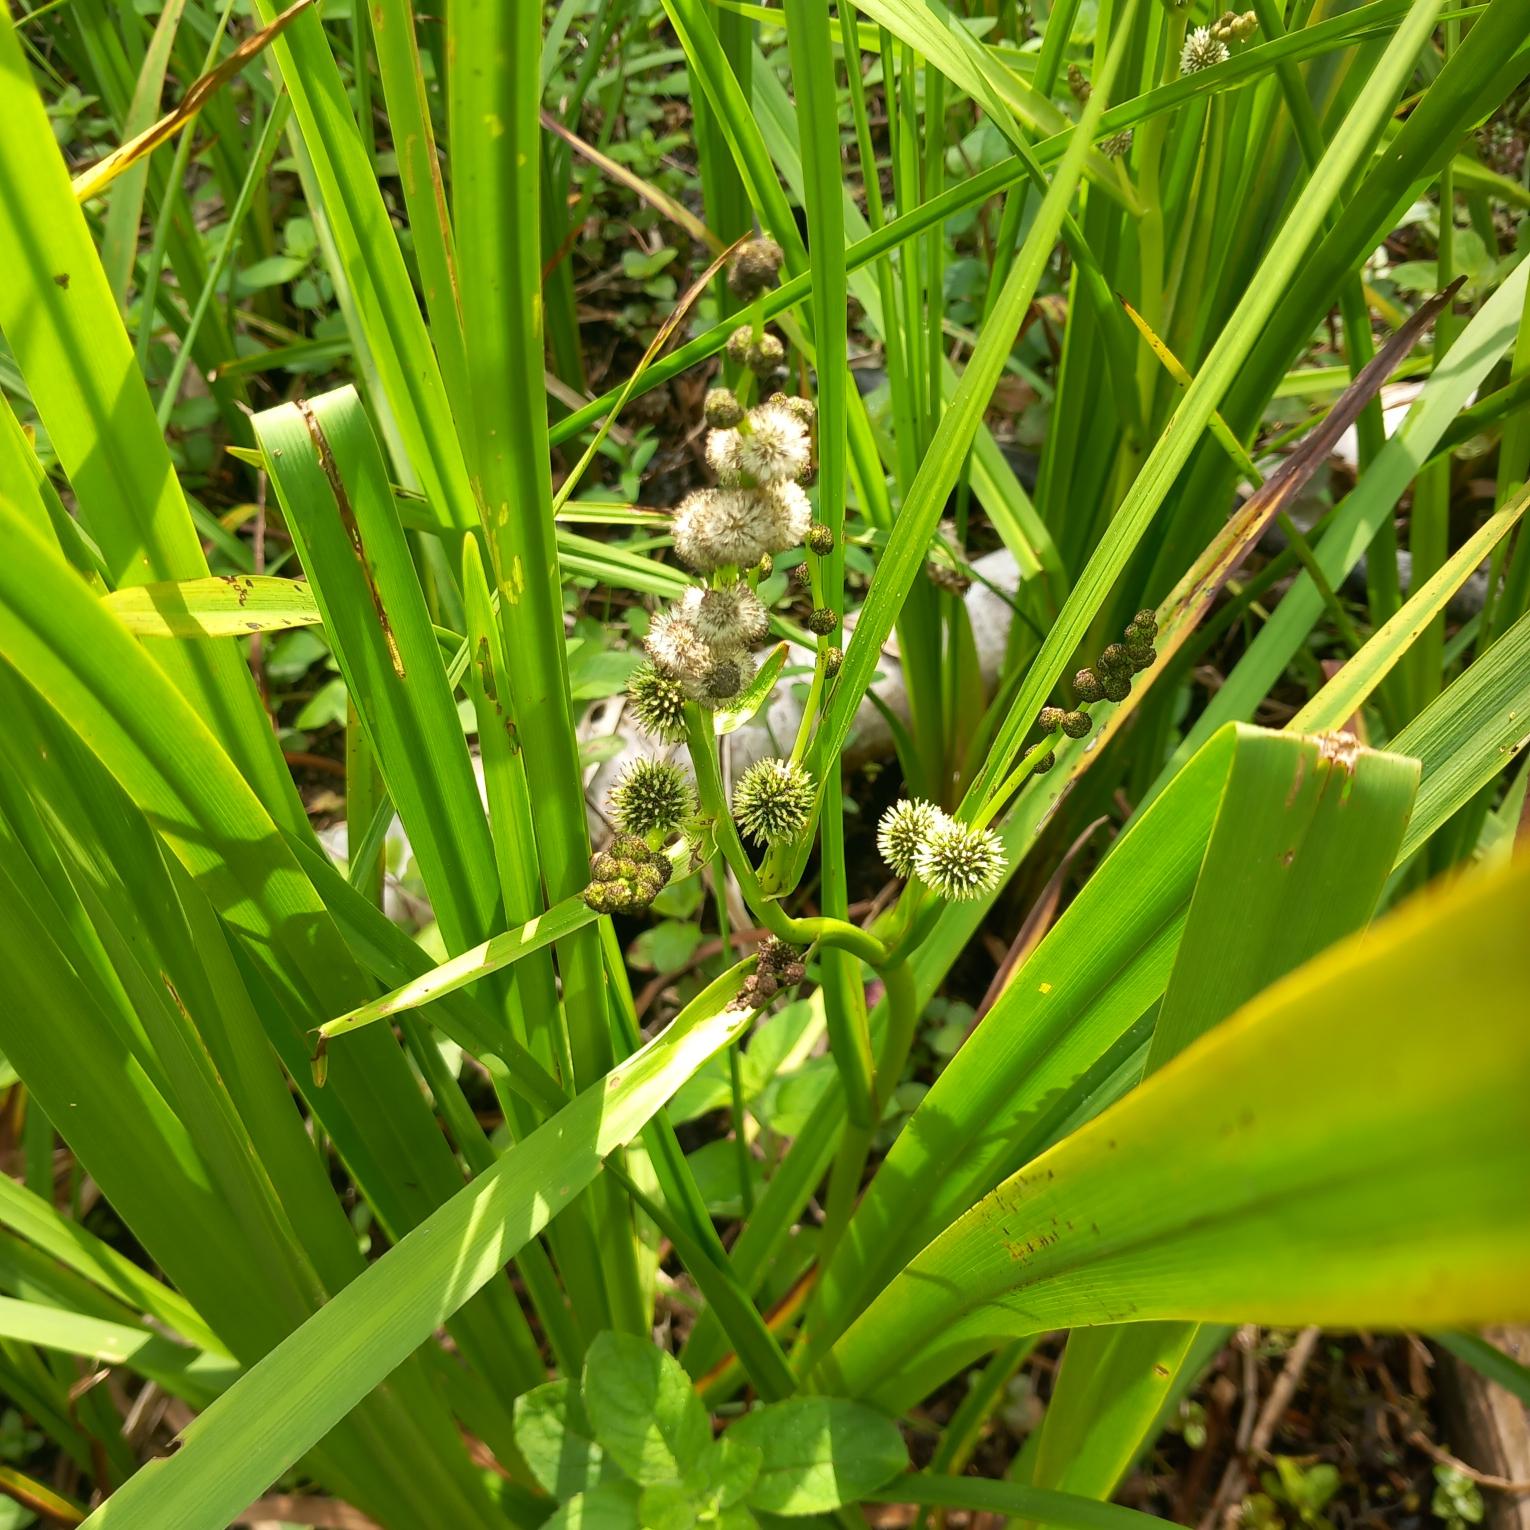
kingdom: Plantae
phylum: Tracheophyta
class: Liliopsida
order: Poales
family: Typhaceae
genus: Sparganium
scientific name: Sparganium erectum
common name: Grenet pindsvineknop
